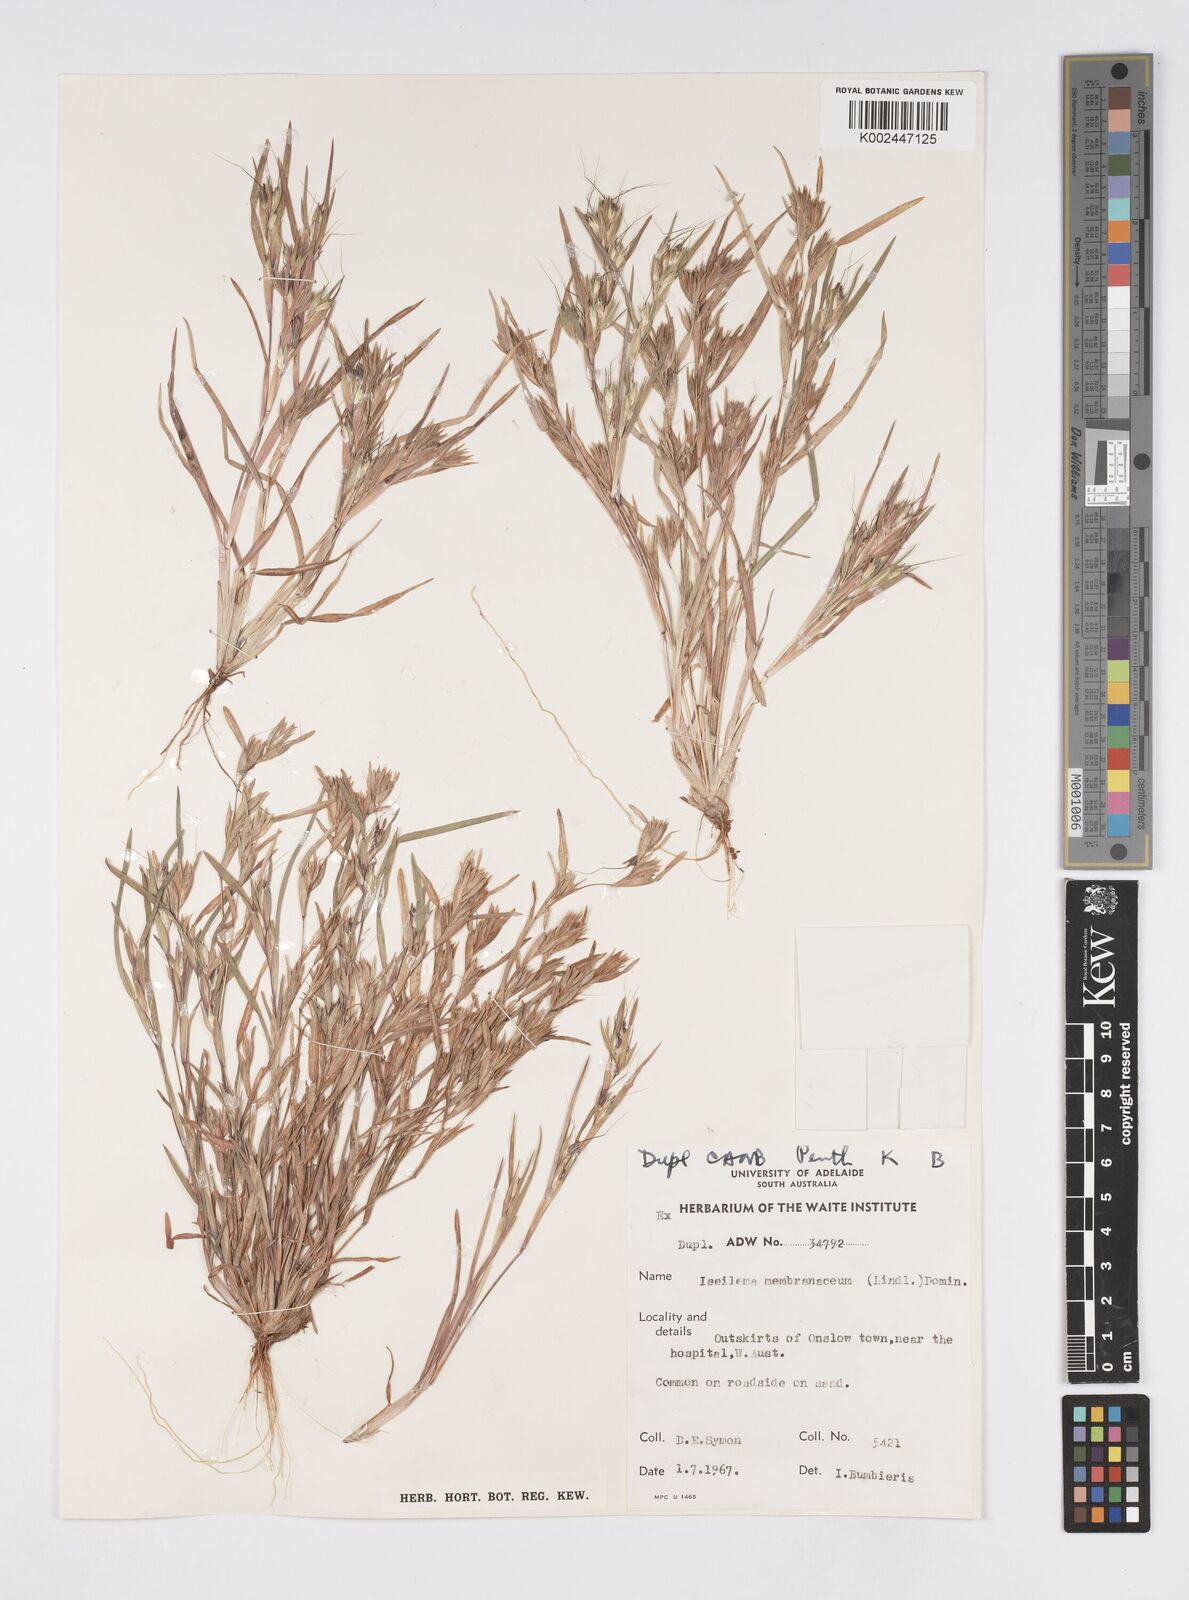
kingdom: Plantae
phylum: Tracheophyta
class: Liliopsida
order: Poales
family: Poaceae
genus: Iseilema
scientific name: Iseilema membranaceum
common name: Small flinders grass
